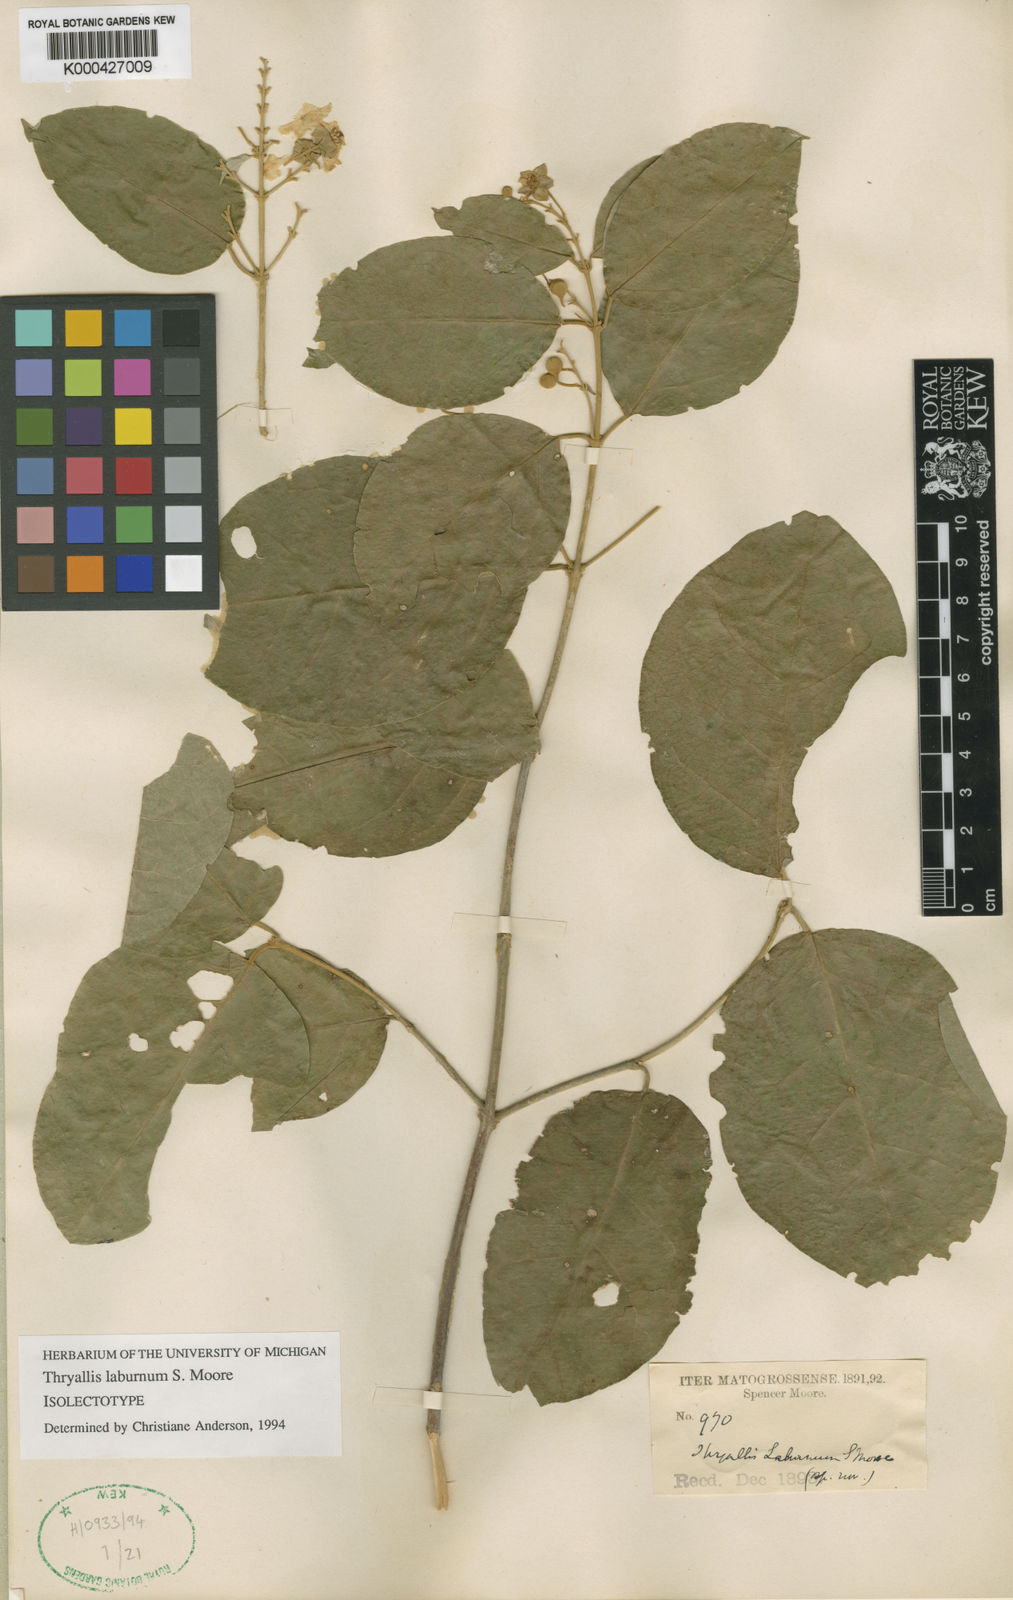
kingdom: Plantae
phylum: Tracheophyta
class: Magnoliopsida
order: Malpighiales
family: Malpighiaceae
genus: Thryallis
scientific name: Thryallis laburnum
